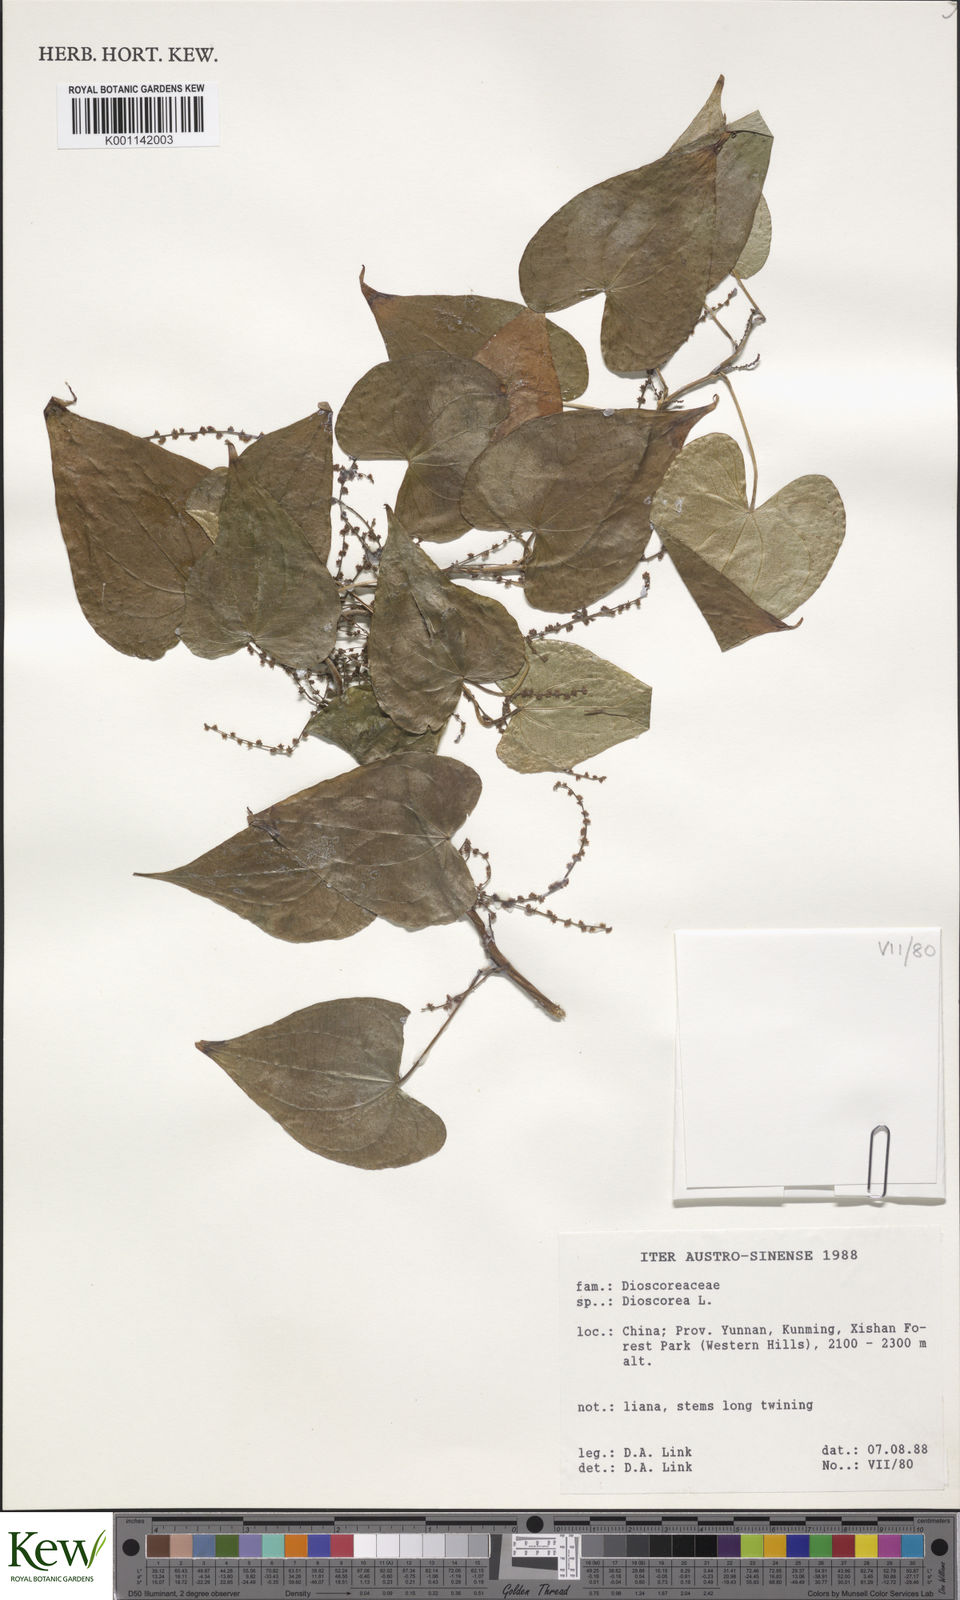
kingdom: Plantae
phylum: Tracheophyta
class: Liliopsida
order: Dioscoreales
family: Dioscoreaceae
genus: Dioscorea
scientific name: Dioscorea
